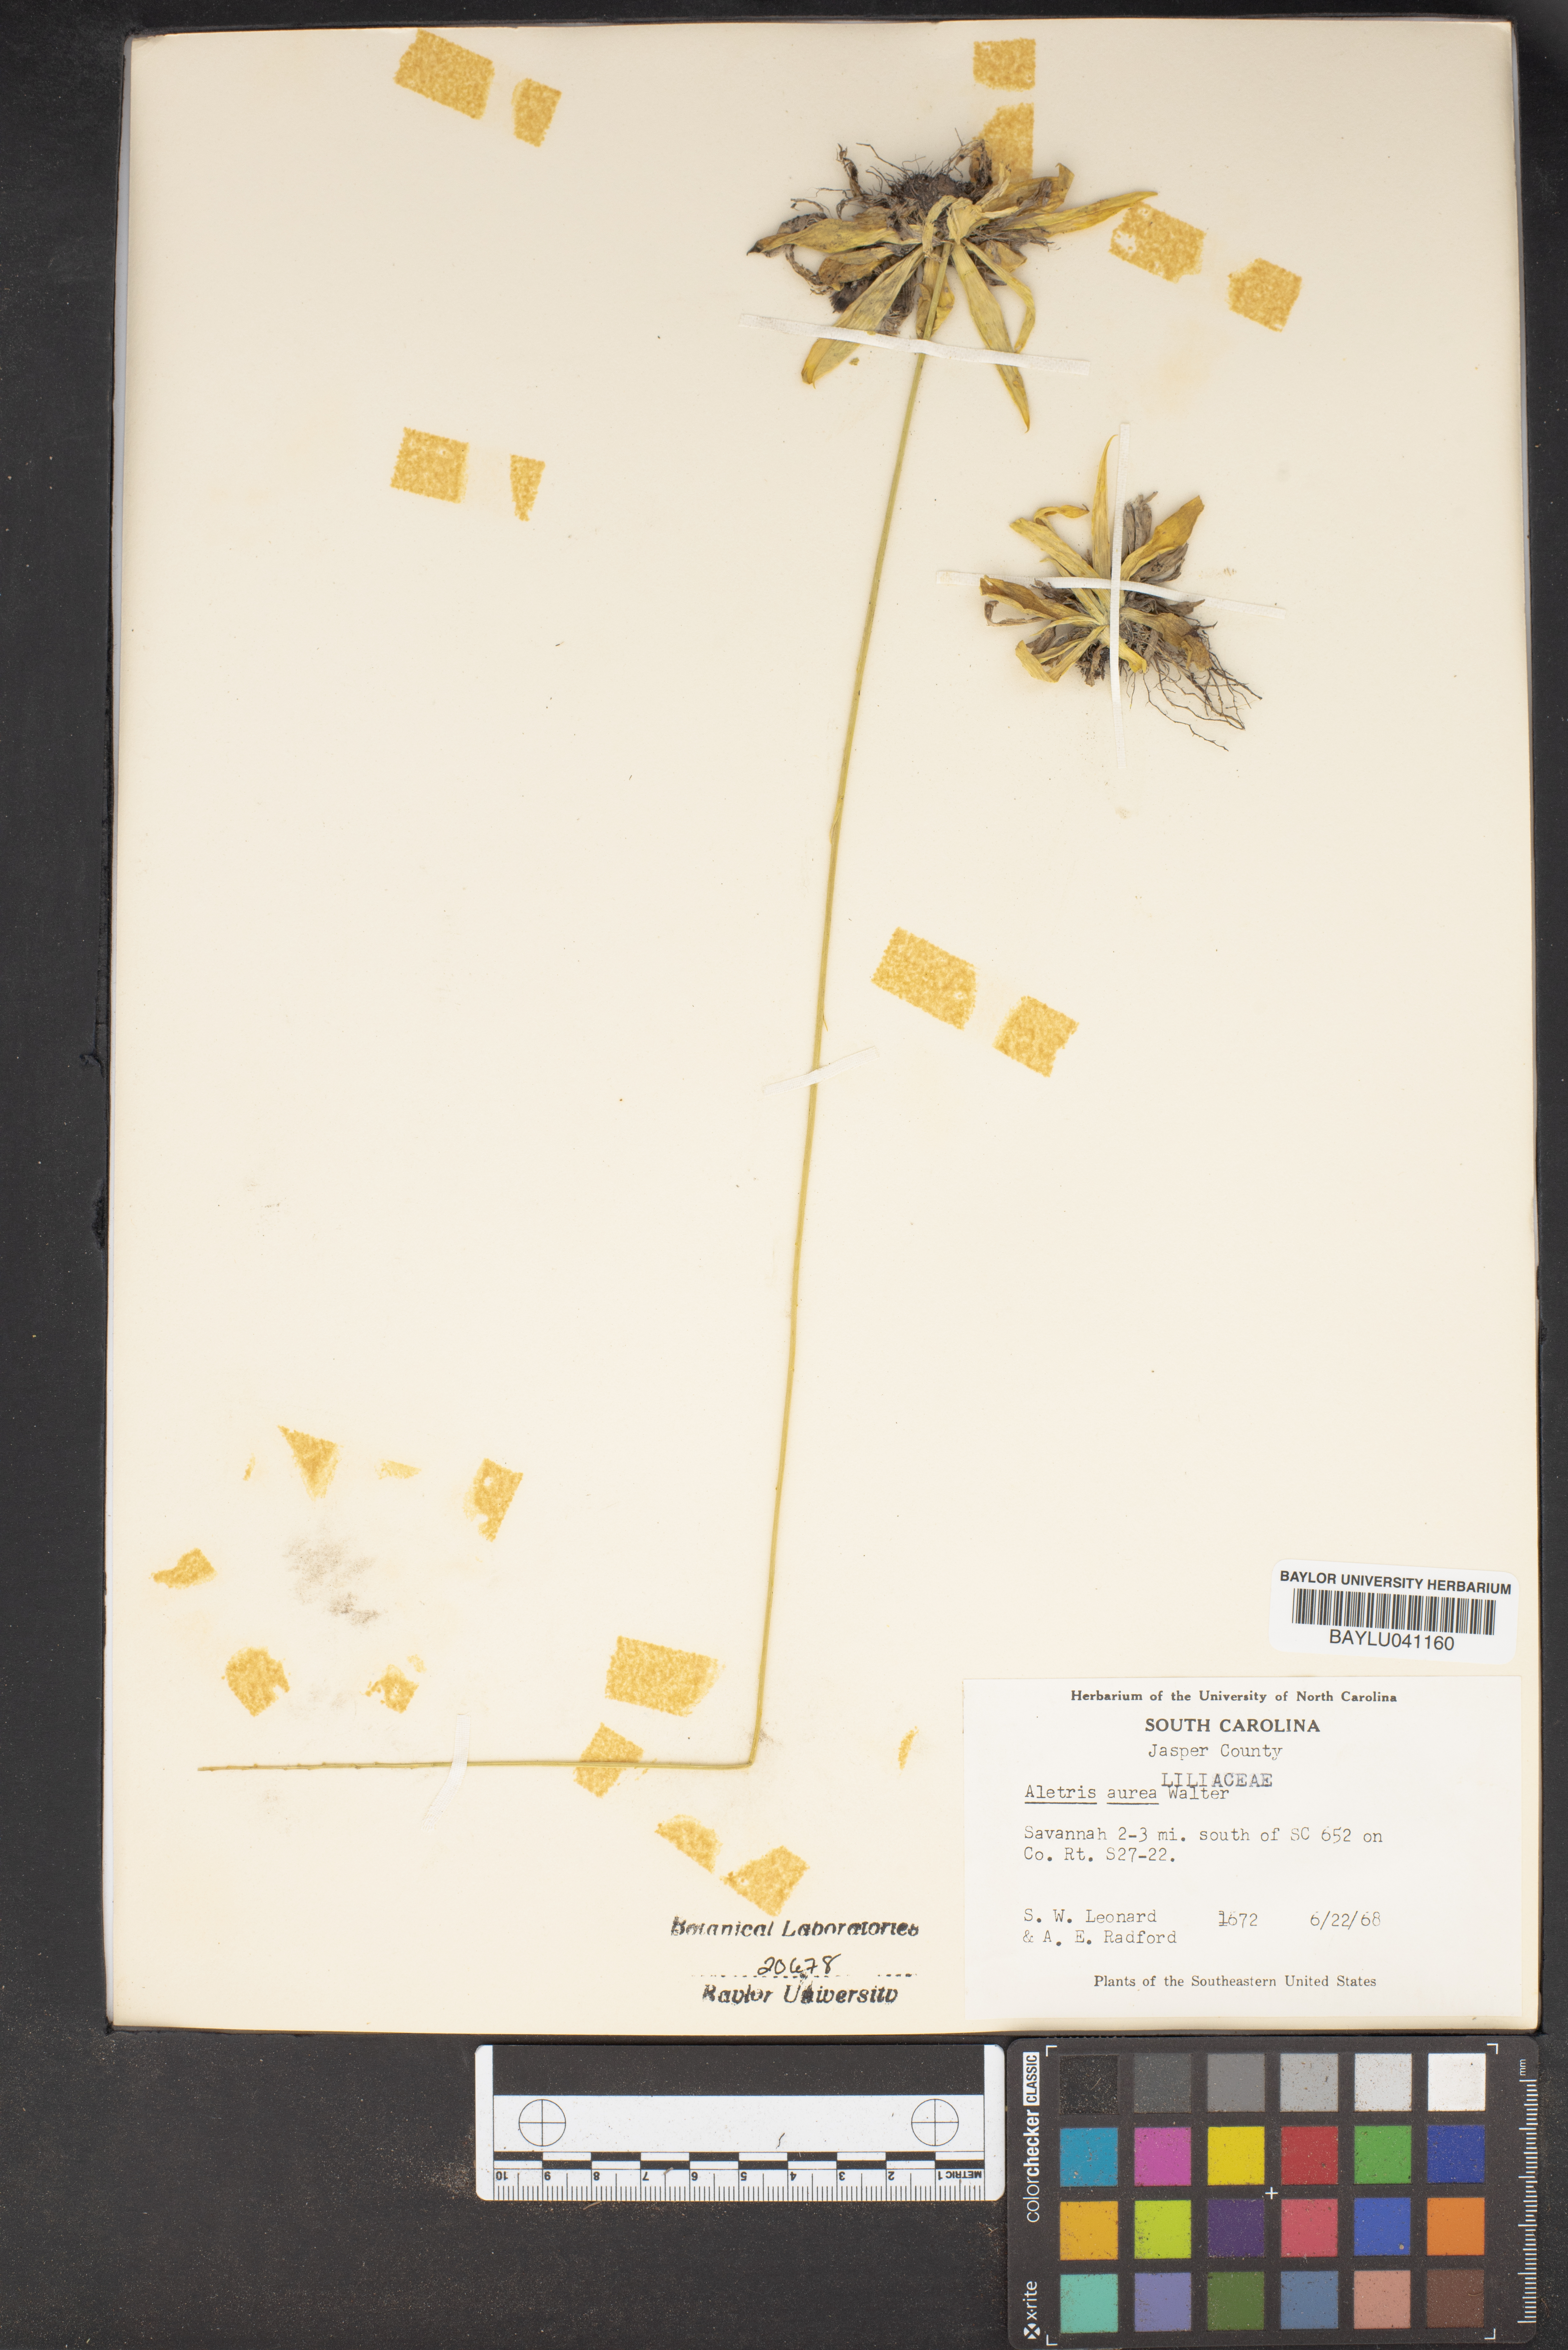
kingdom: Plantae
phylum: Tracheophyta
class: Liliopsida
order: Dioscoreales
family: Nartheciaceae
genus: Aletris
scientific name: Aletris aurea
